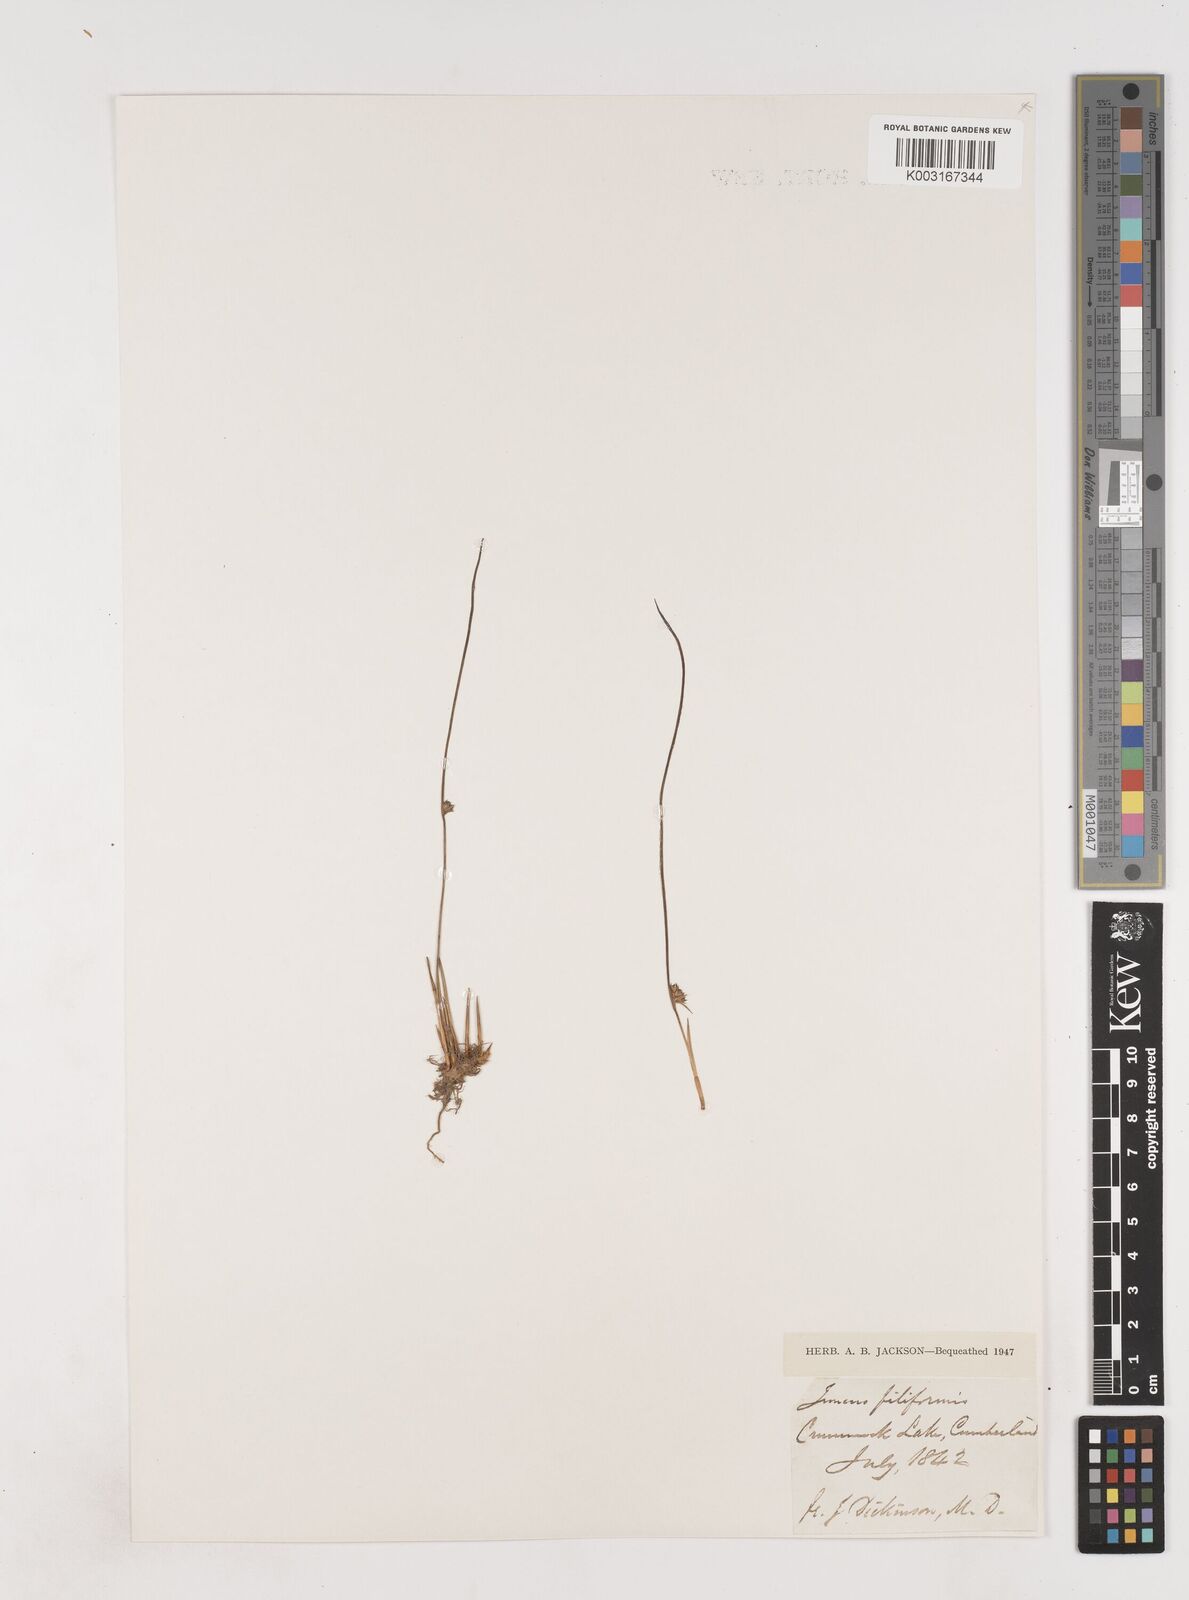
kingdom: Plantae
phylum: Tracheophyta
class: Liliopsida
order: Poales
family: Juncaceae
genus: Juncus
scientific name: Juncus filiformis
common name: Thread rush
